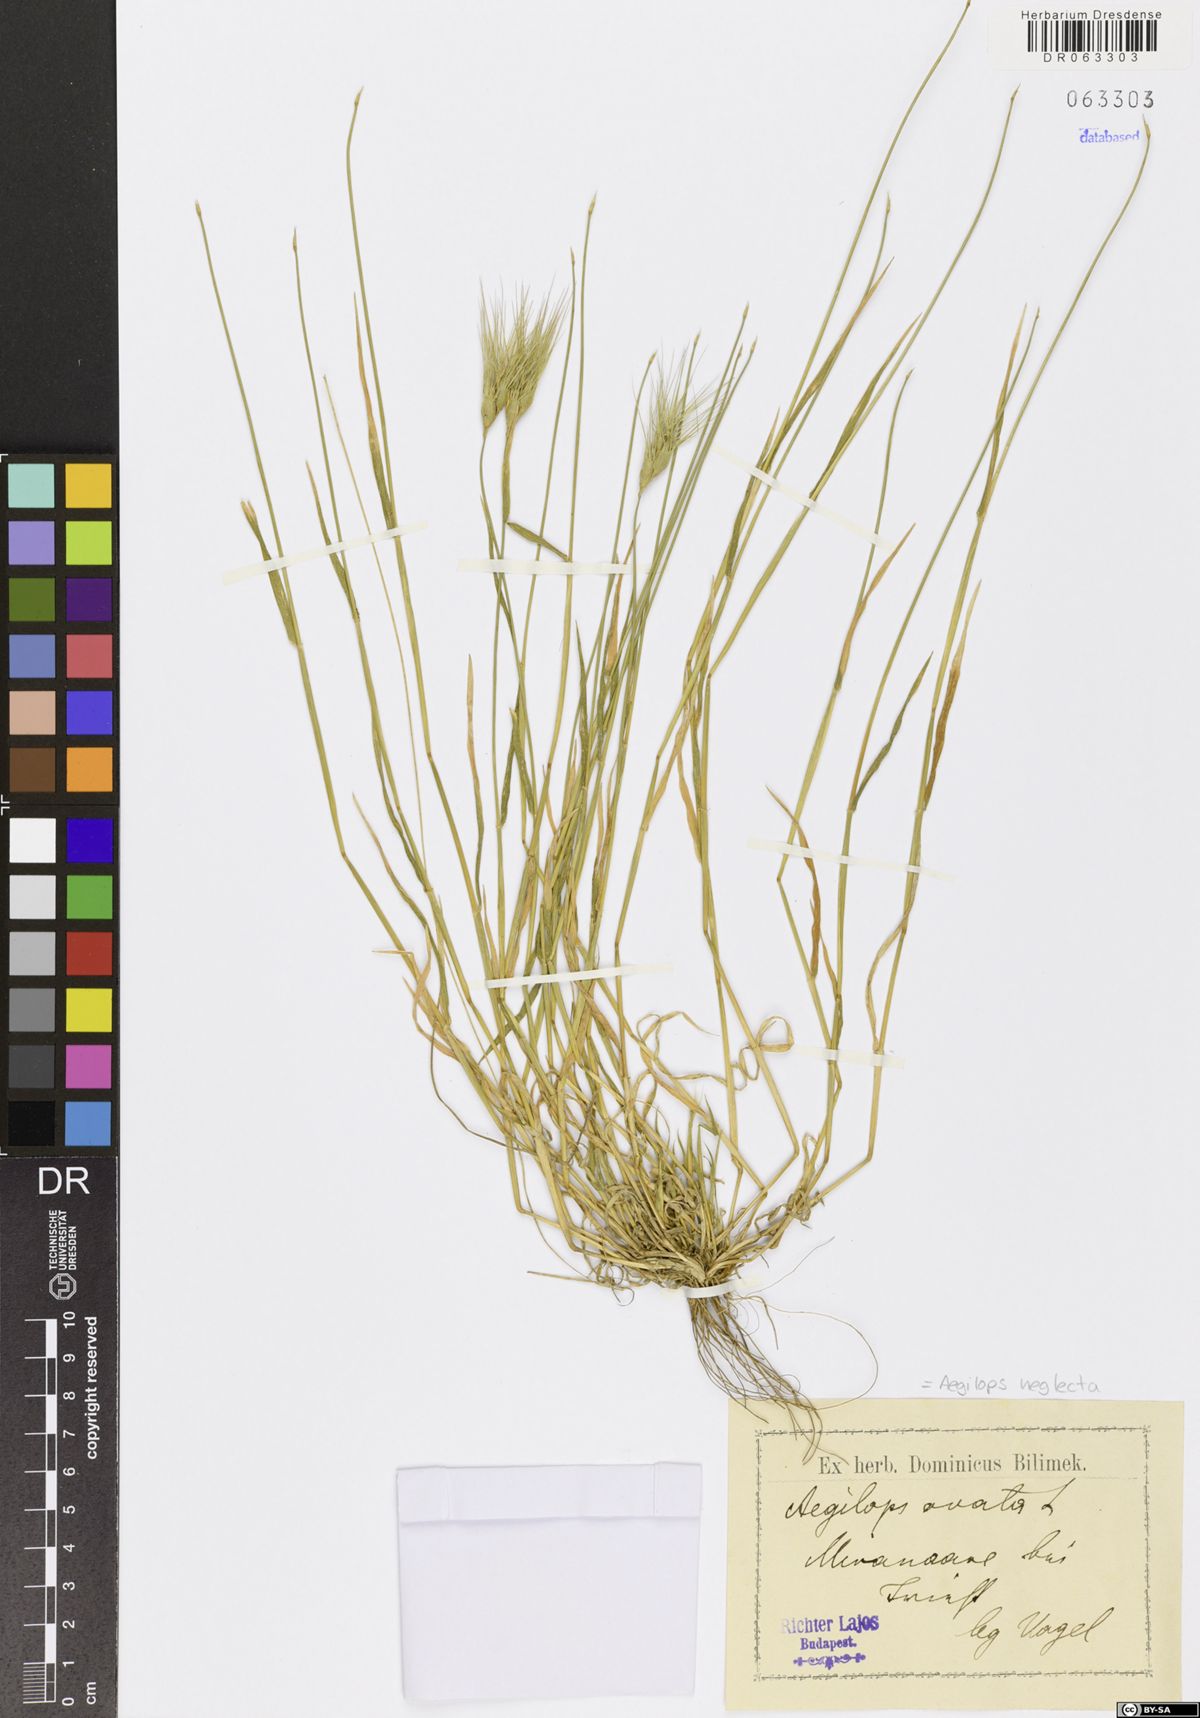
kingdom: Plantae
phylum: Tracheophyta
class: Liliopsida
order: Poales
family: Poaceae
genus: Aegilops
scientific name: Aegilops neglecta
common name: Three-awn goat grass
